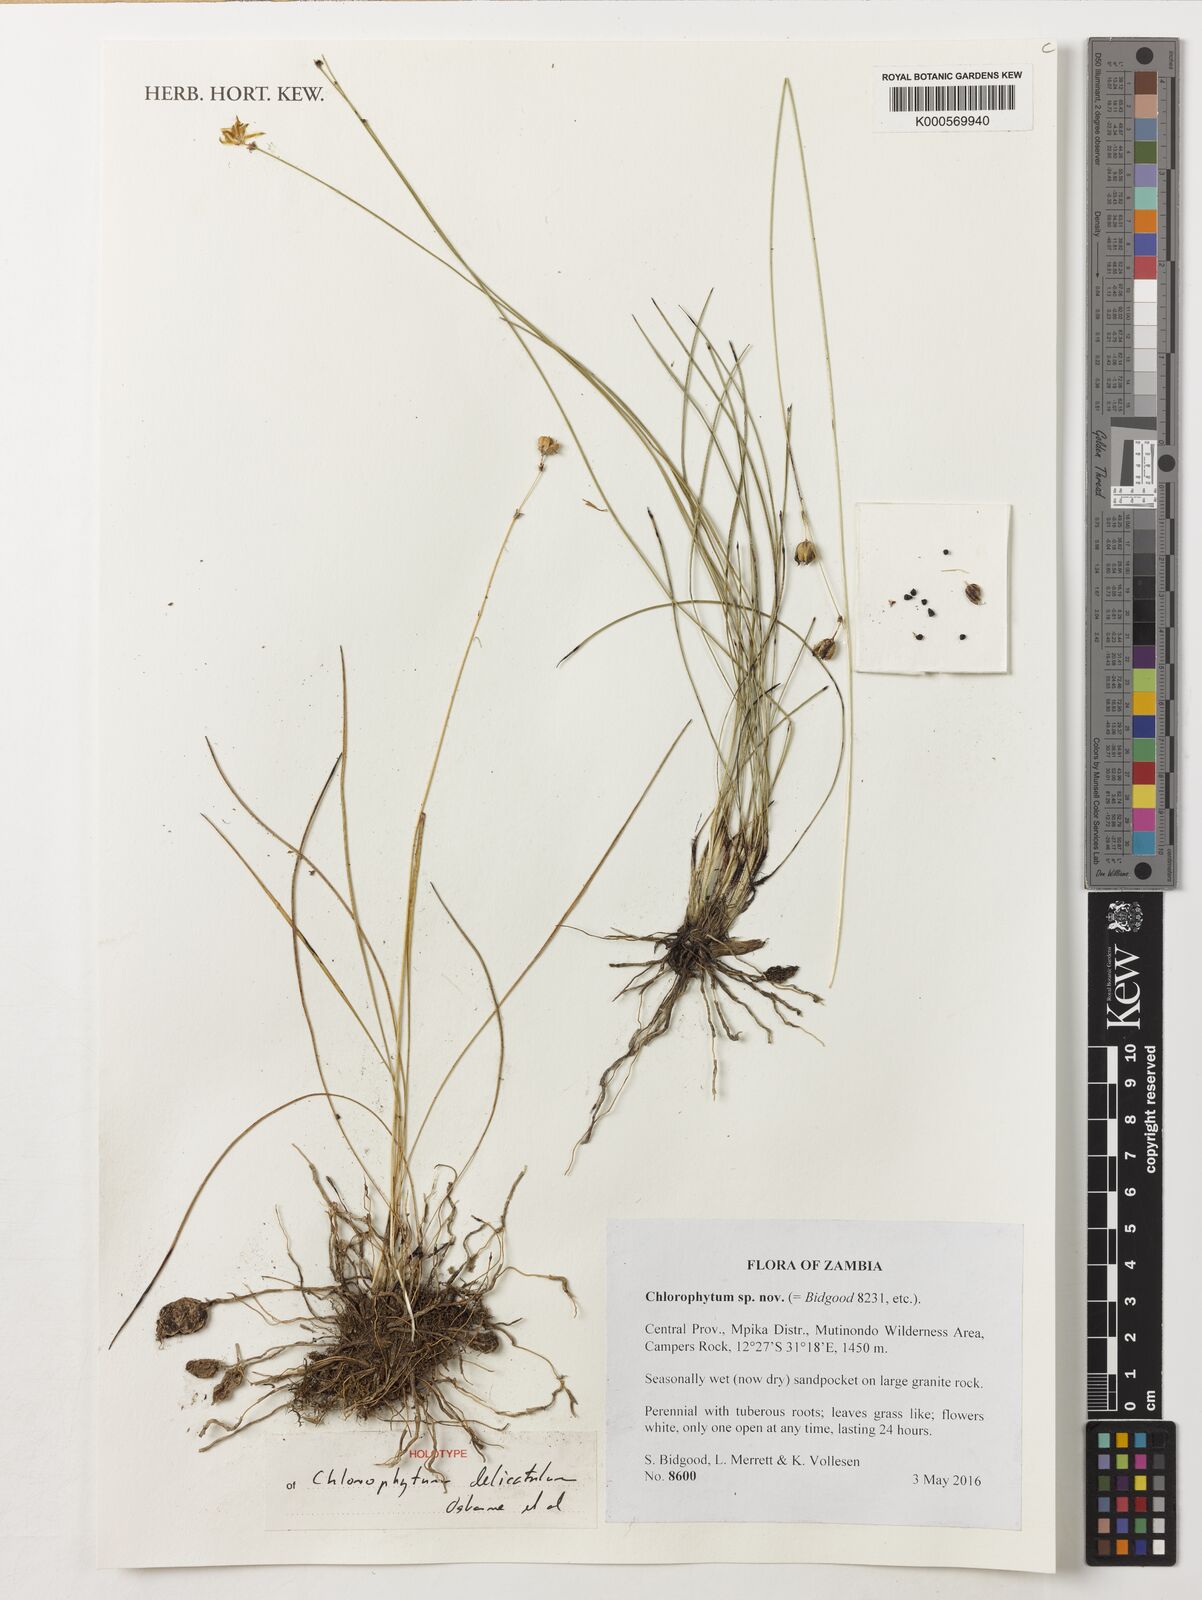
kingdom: Plantae
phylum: Tracheophyta
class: Liliopsida
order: Asparagales
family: Asparagaceae
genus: Chlorophytum
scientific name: Chlorophytum
